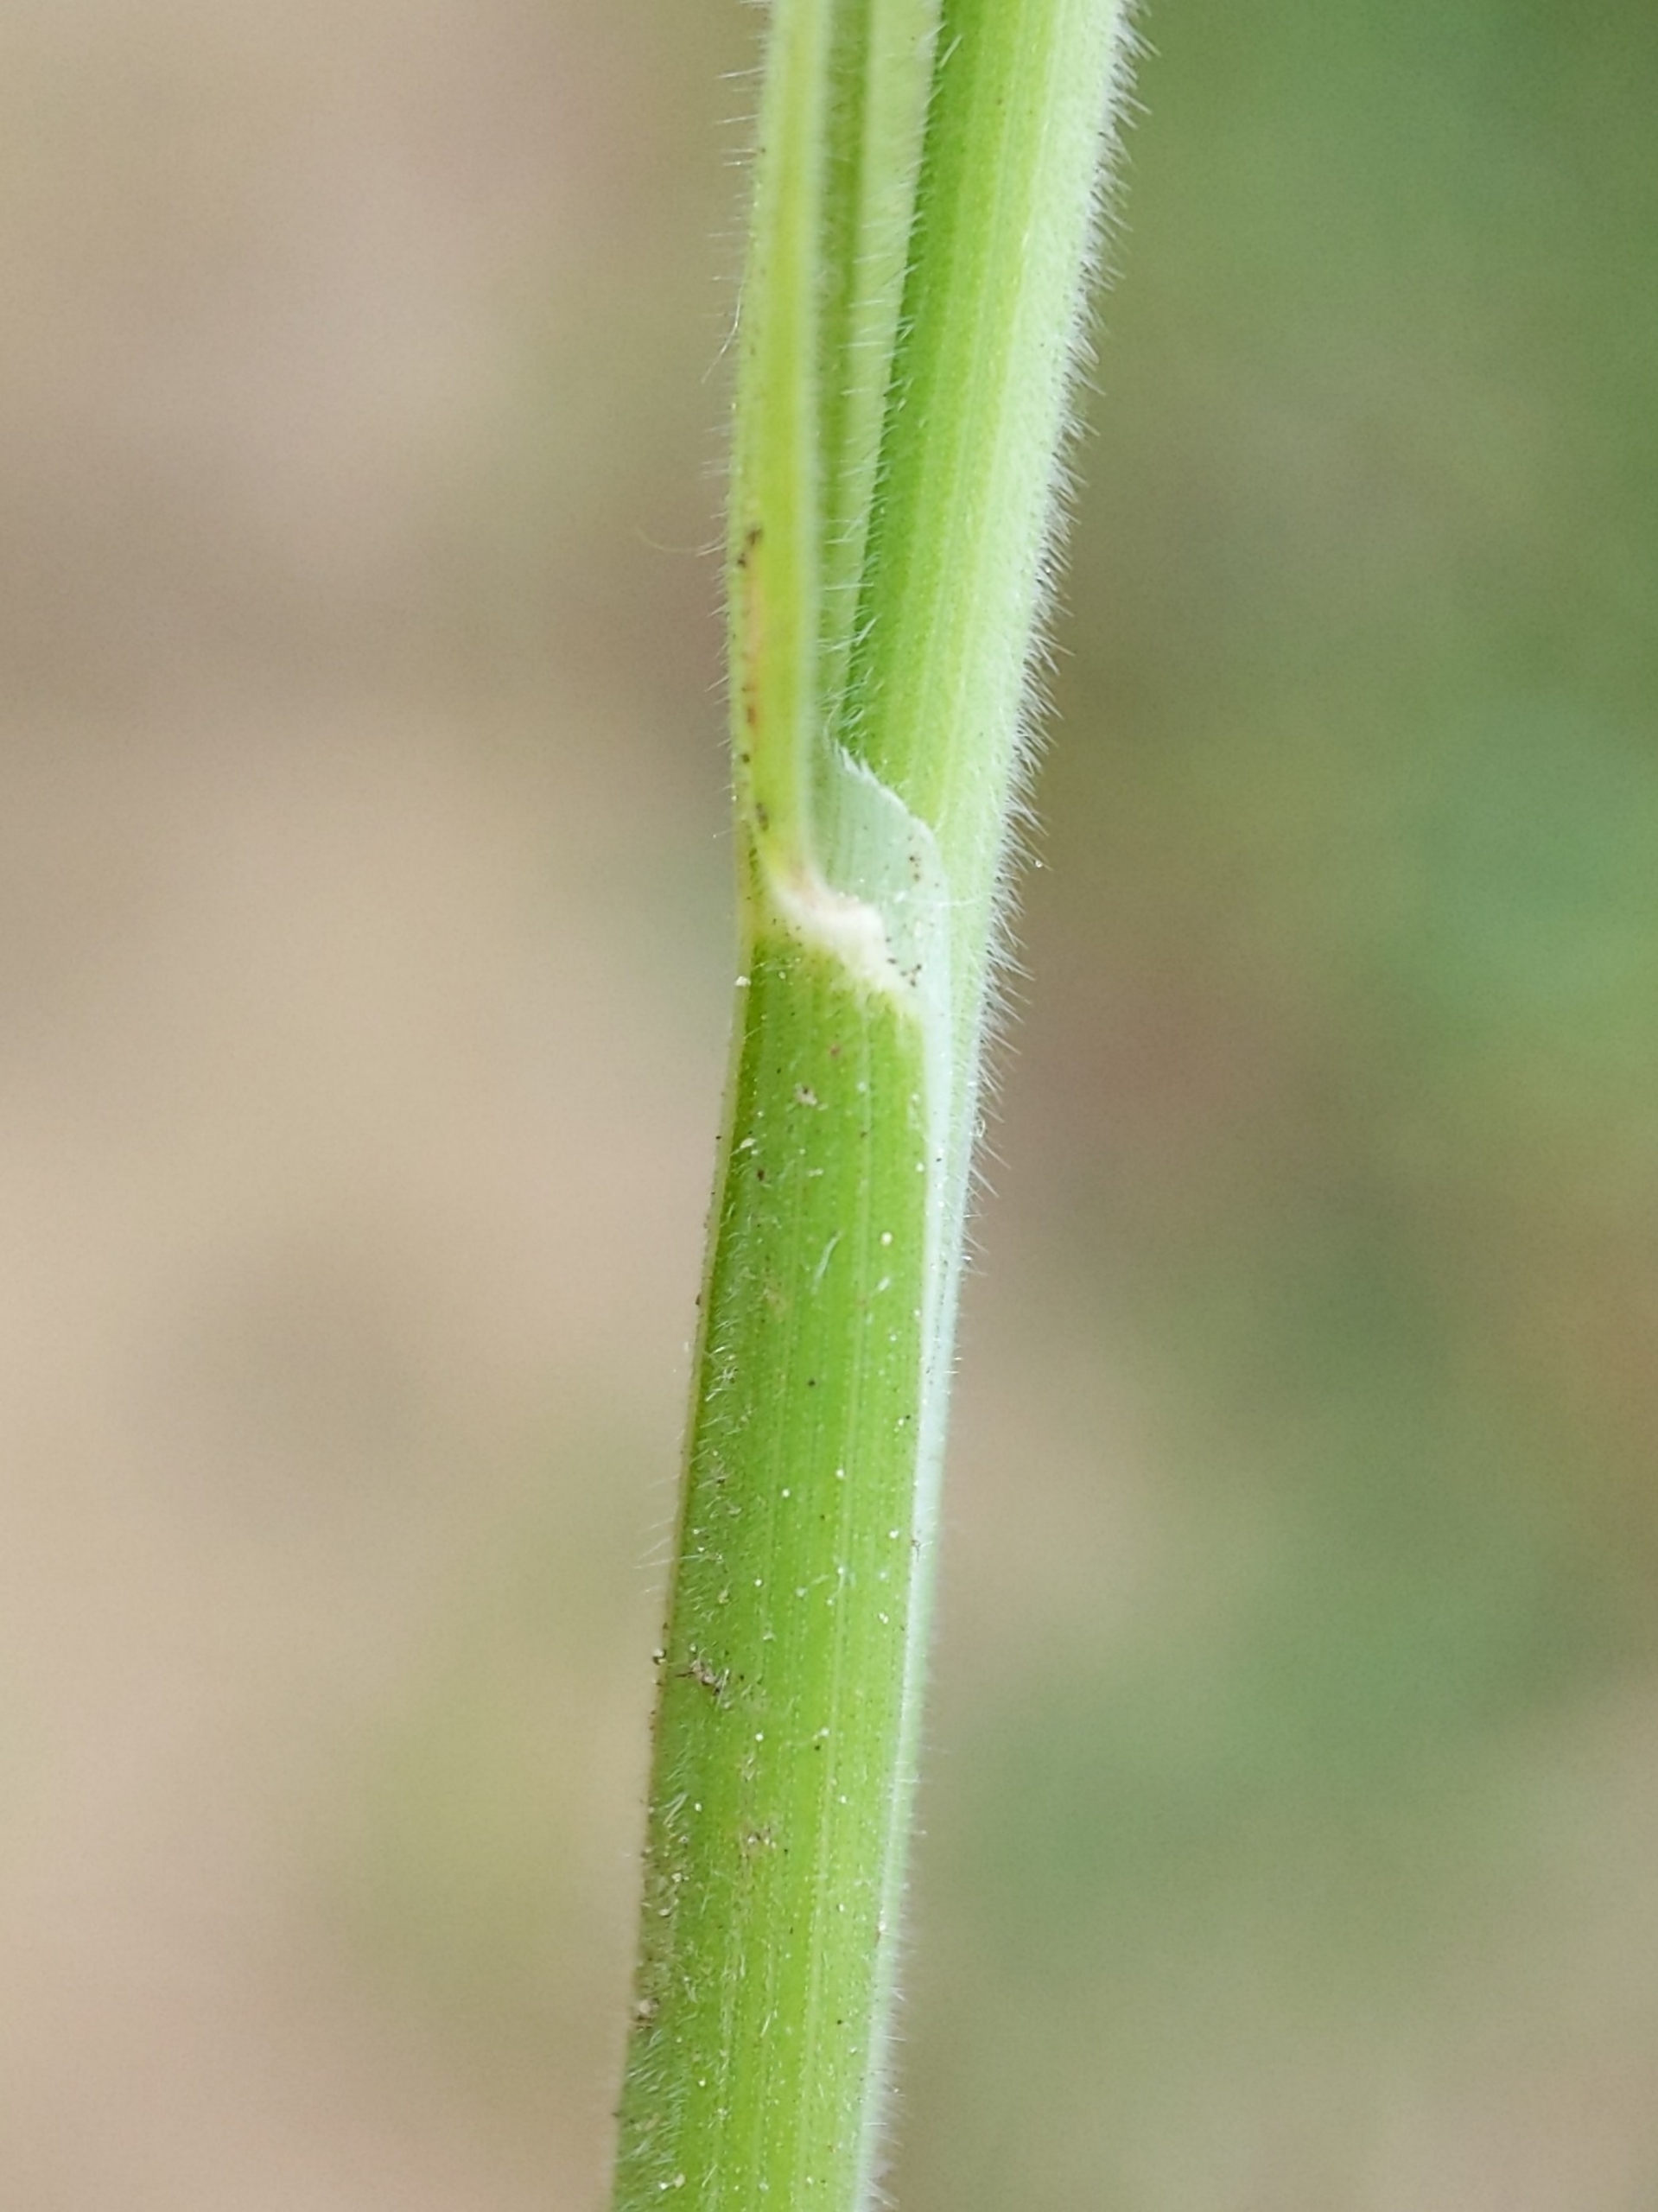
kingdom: Plantae
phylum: Tracheophyta
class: Liliopsida
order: Poales
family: Poaceae
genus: Holcus
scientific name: Holcus lanatus
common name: Fløjlsgræs
